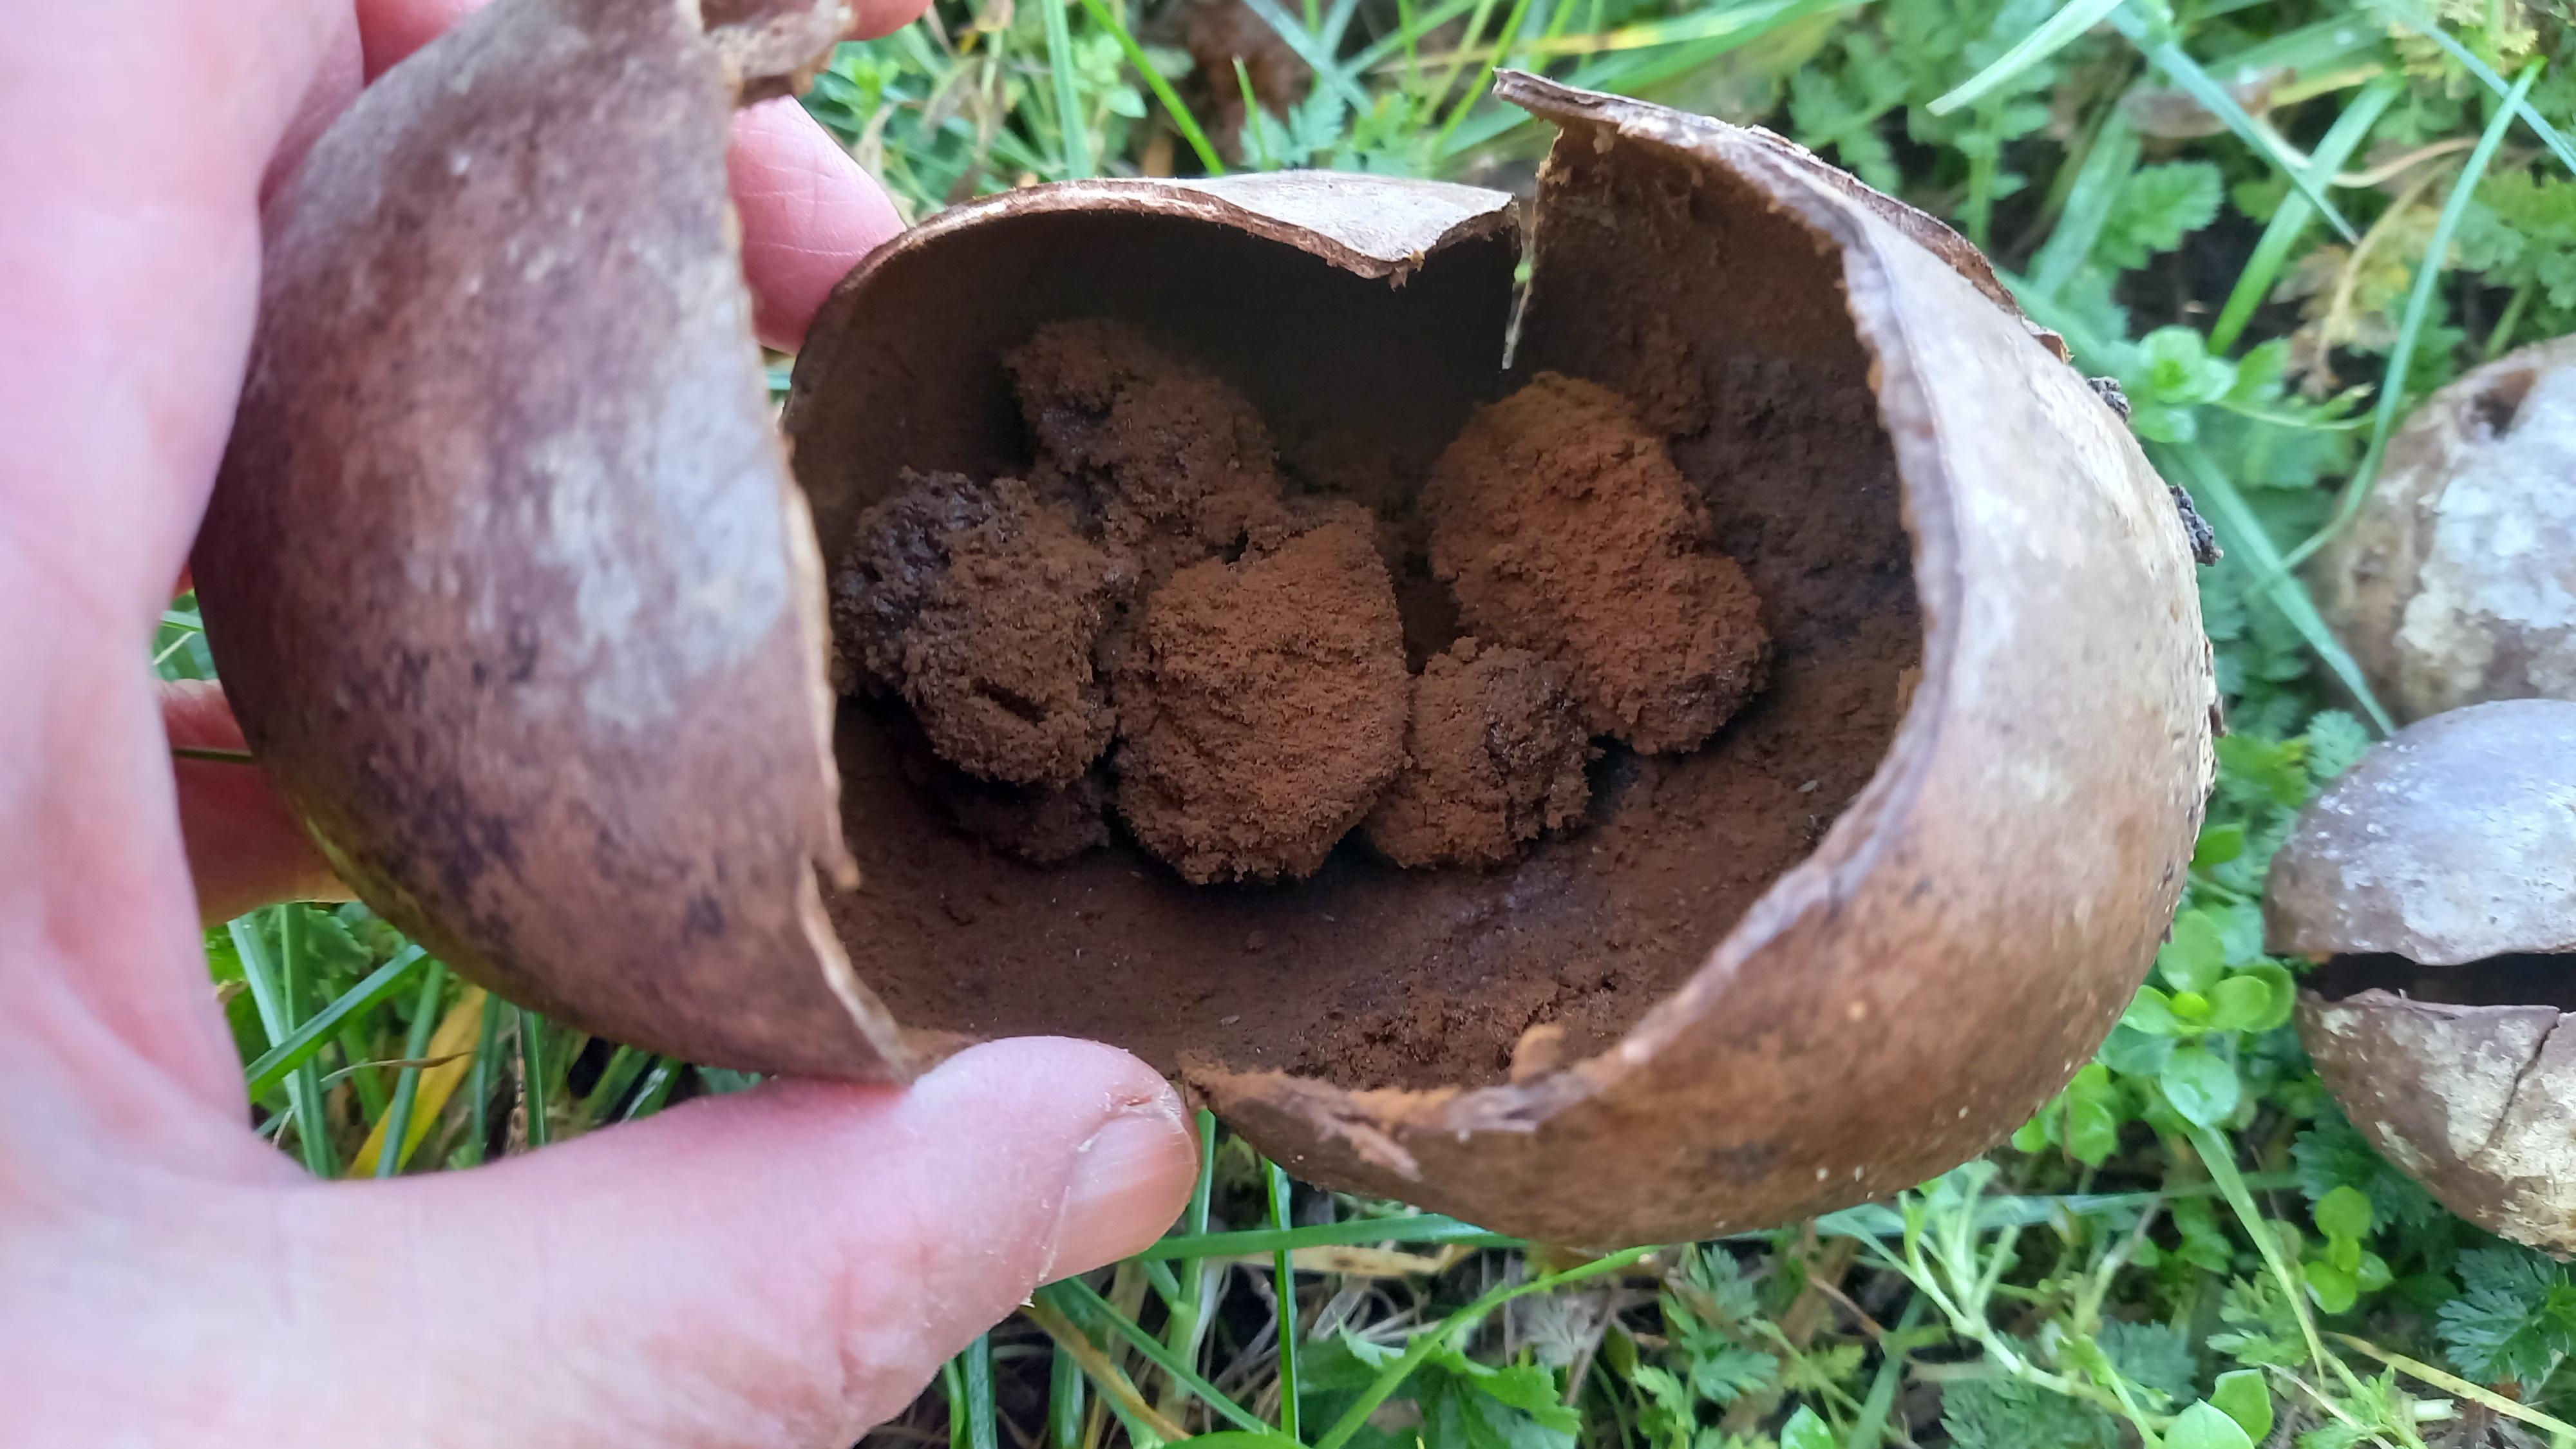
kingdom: Fungi
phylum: Basidiomycota
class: Agaricomycetes
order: Agaricales
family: Agaricaceae
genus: Mycenastrum
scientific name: Mycenastrum corium
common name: læderbold
